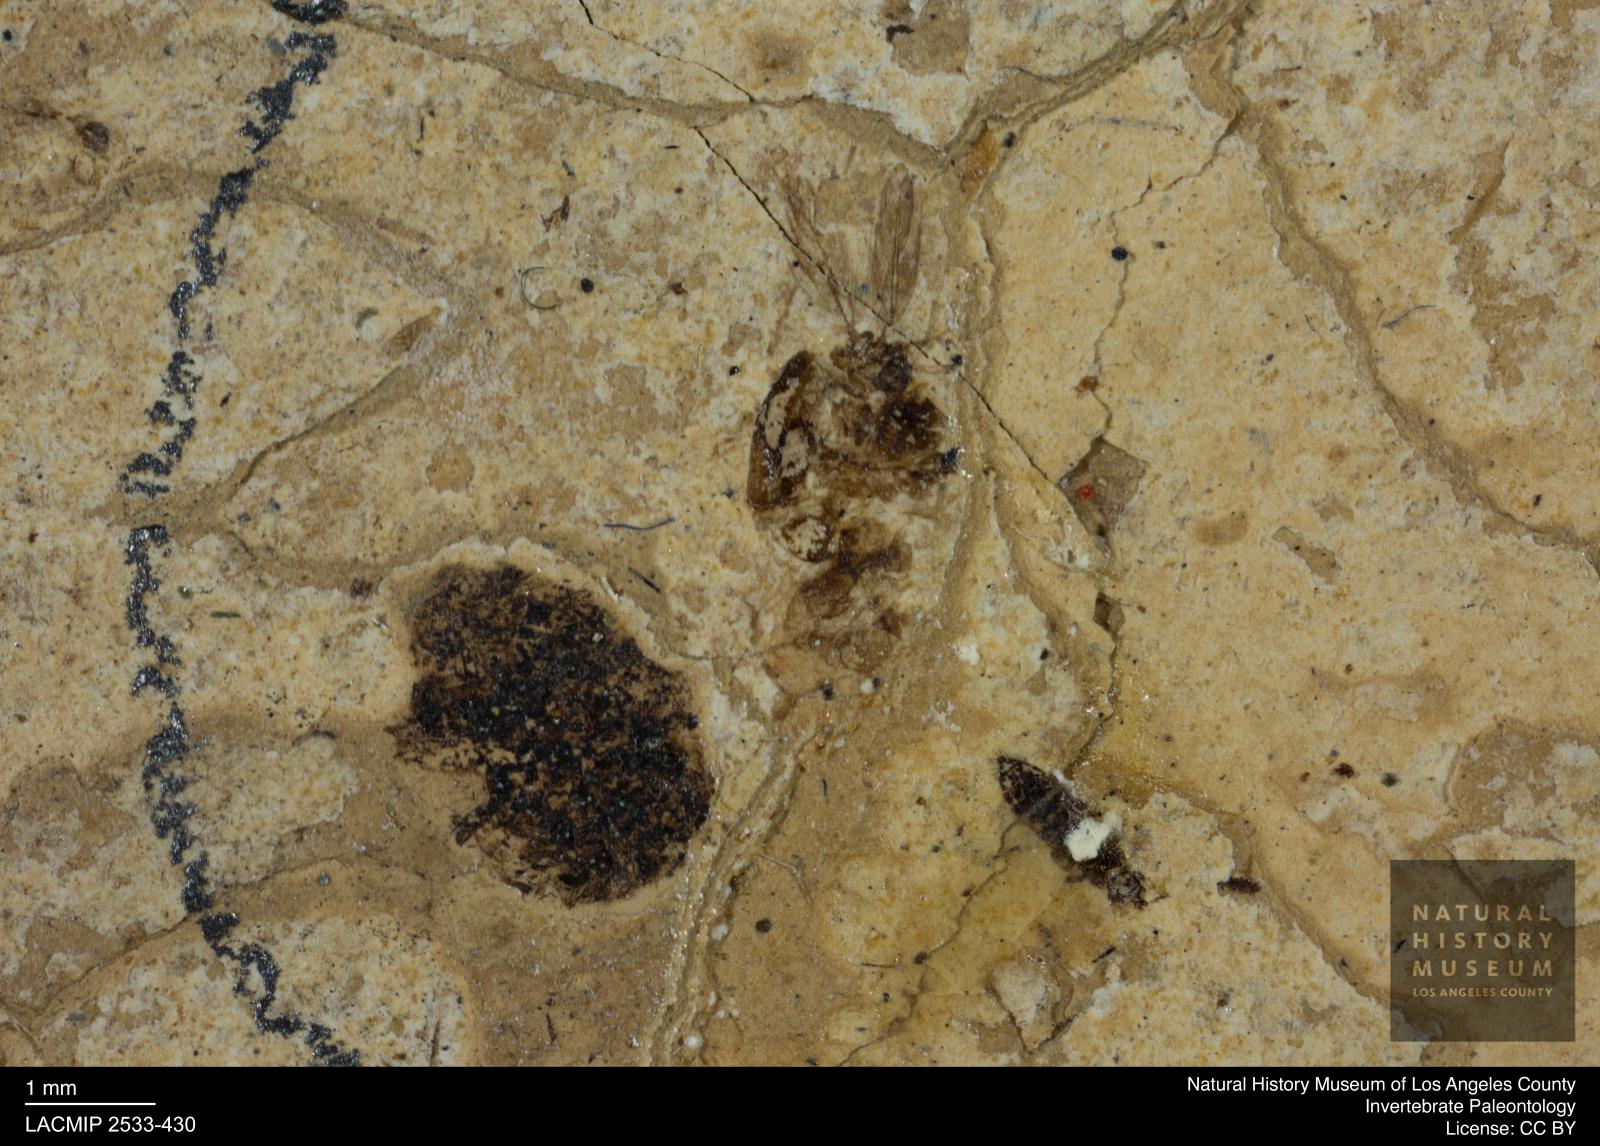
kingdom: Animalia
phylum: Arthropoda
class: Insecta
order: Diptera
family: Chironomidae
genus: Tanypus
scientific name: Tanypus thienemanni
